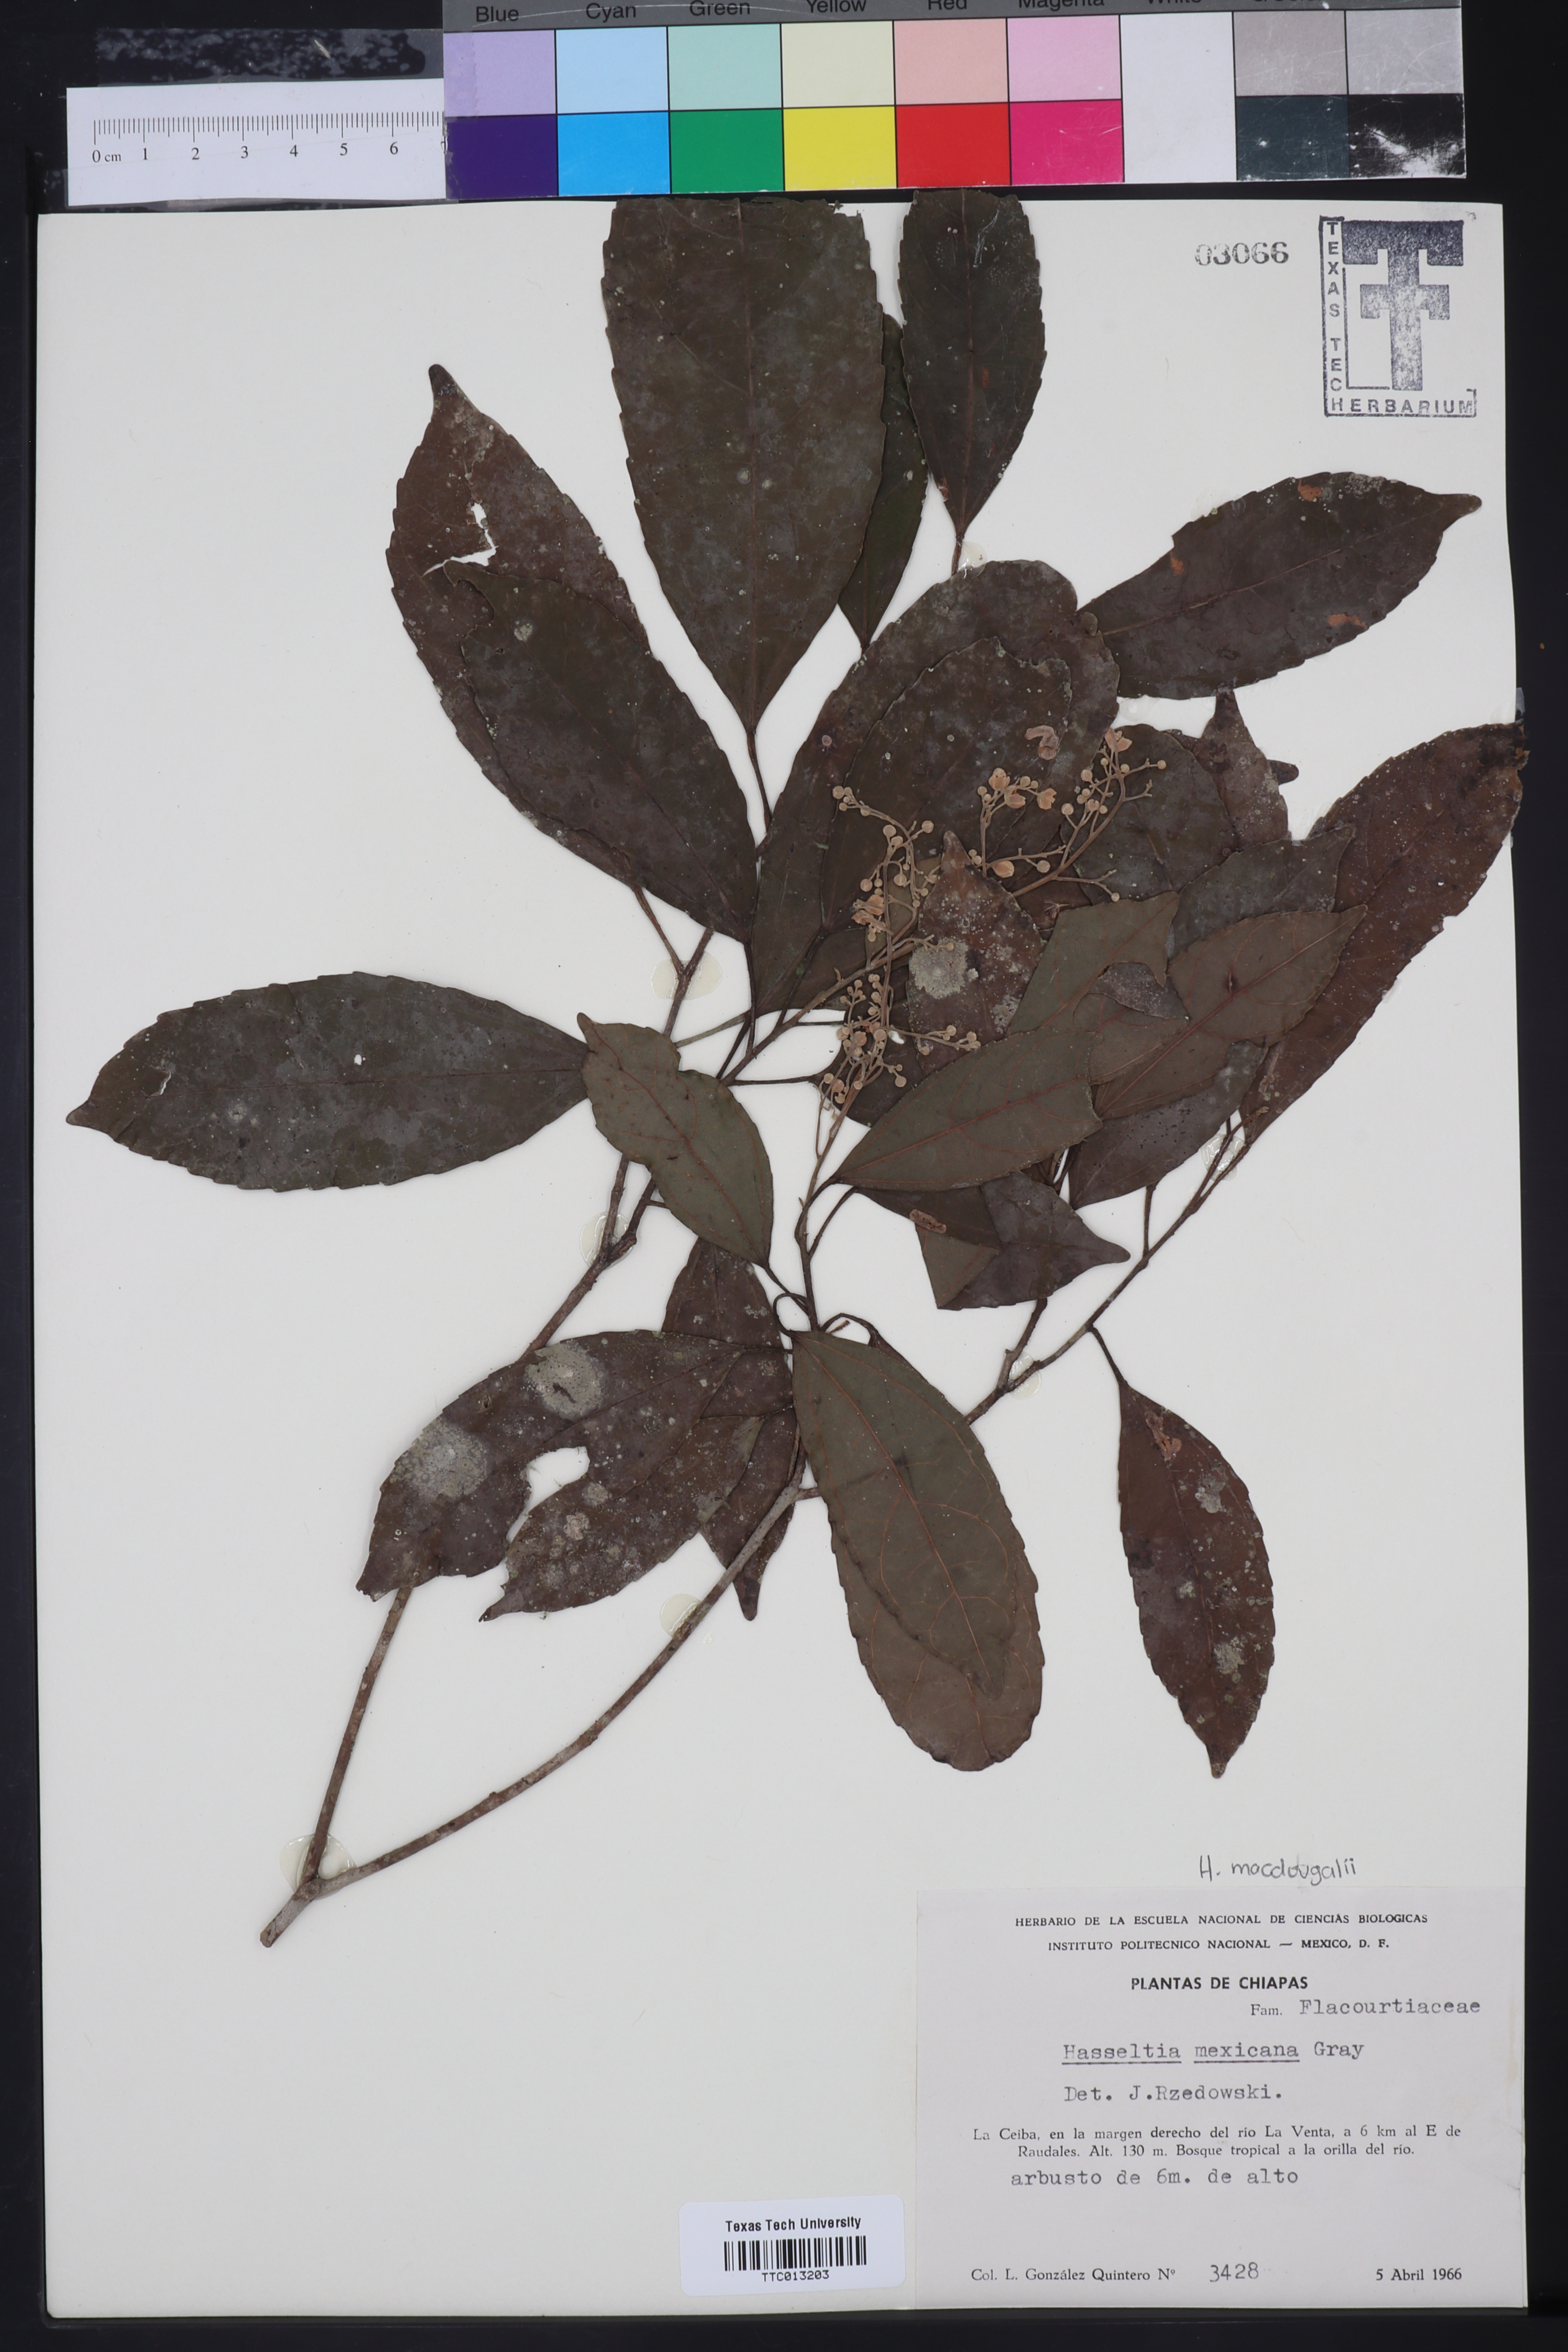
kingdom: Plantae
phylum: Tracheophyta
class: Magnoliopsida
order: Malpighiales
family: Salicaceae
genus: Pleuranthodendron
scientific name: Pleuranthodendron lindenii
